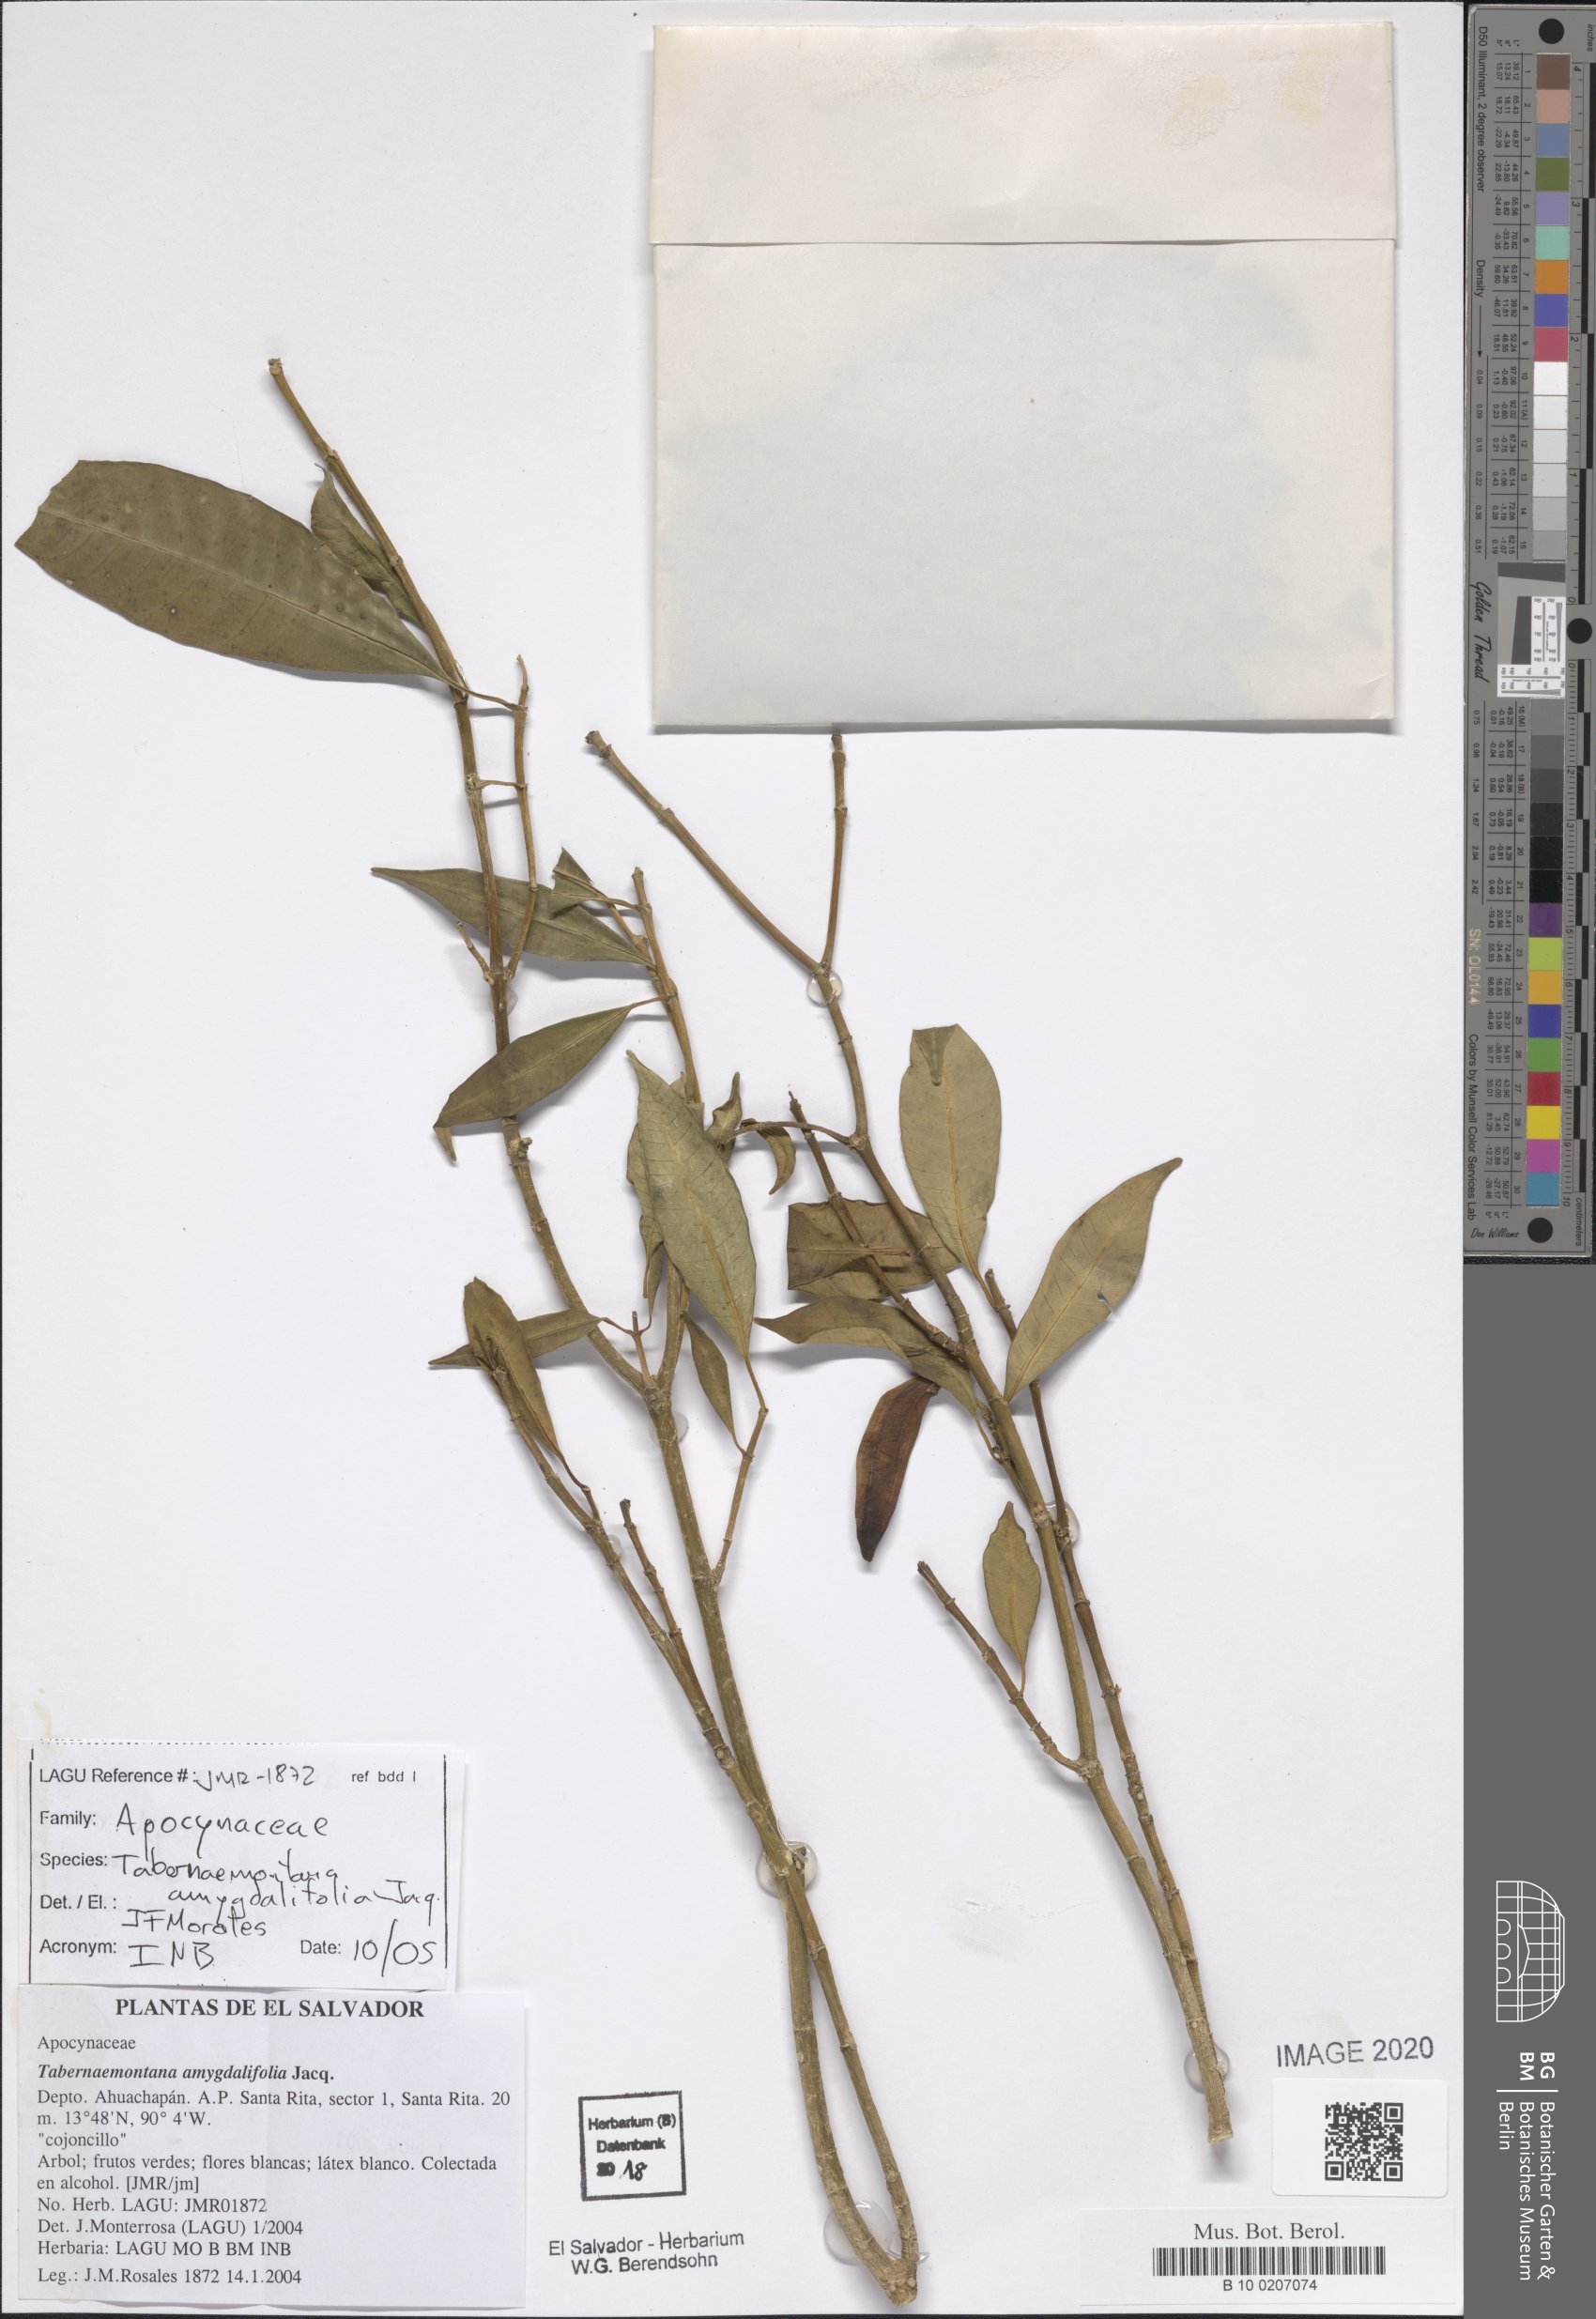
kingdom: Plantae
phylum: Tracheophyta
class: Magnoliopsida
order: Gentianales
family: Apocynaceae
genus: Tabernaemontana
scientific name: Tabernaemontana amygdalifolia
